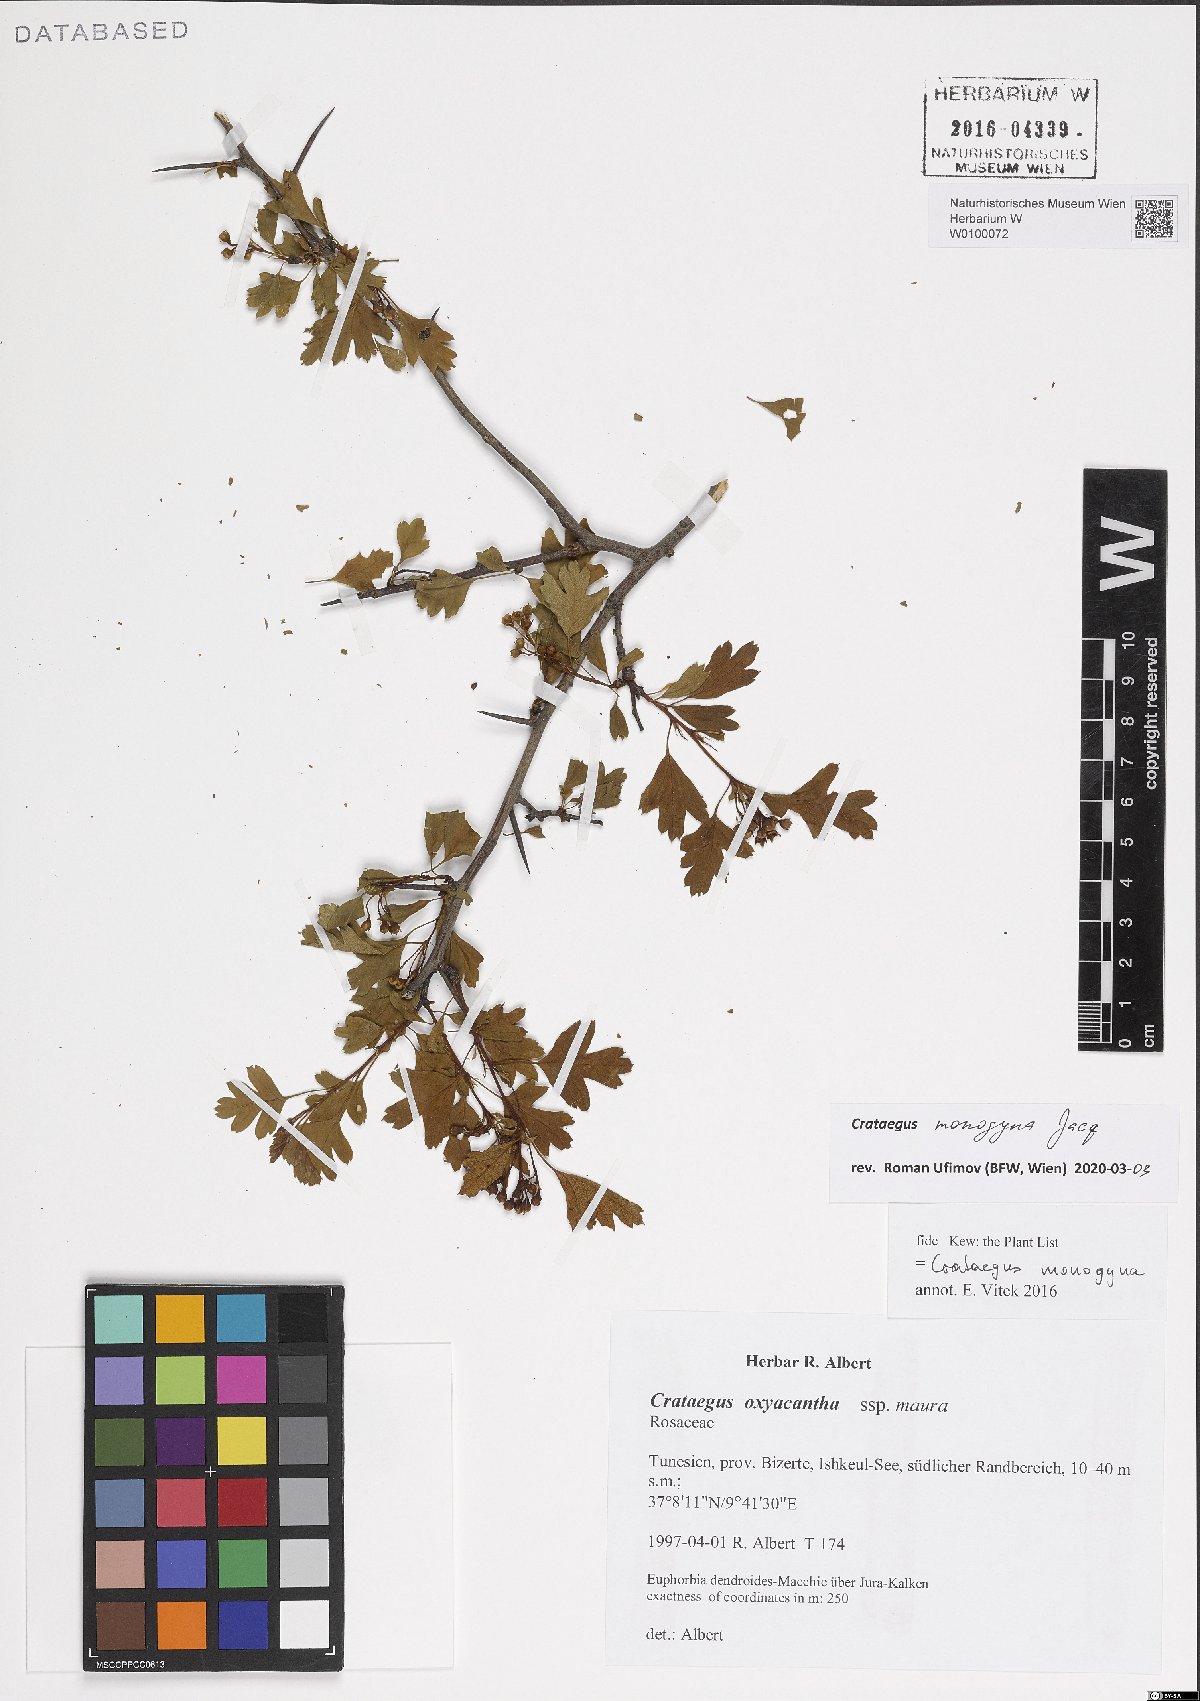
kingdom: Plantae
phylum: Tracheophyta
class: Magnoliopsida
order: Rosales
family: Rosaceae
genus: Crataegus
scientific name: Crataegus monogyna
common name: Hawthorn
